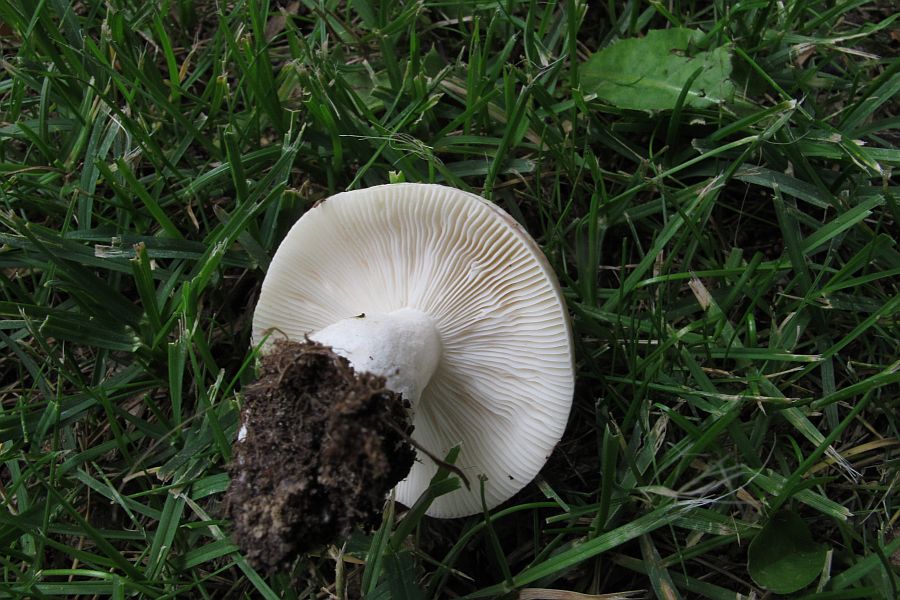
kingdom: Fungi
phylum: Basidiomycota
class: Agaricomycetes
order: Russulales
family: Russulaceae
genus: Russula
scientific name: Russula depallens
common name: falmende skørhat
